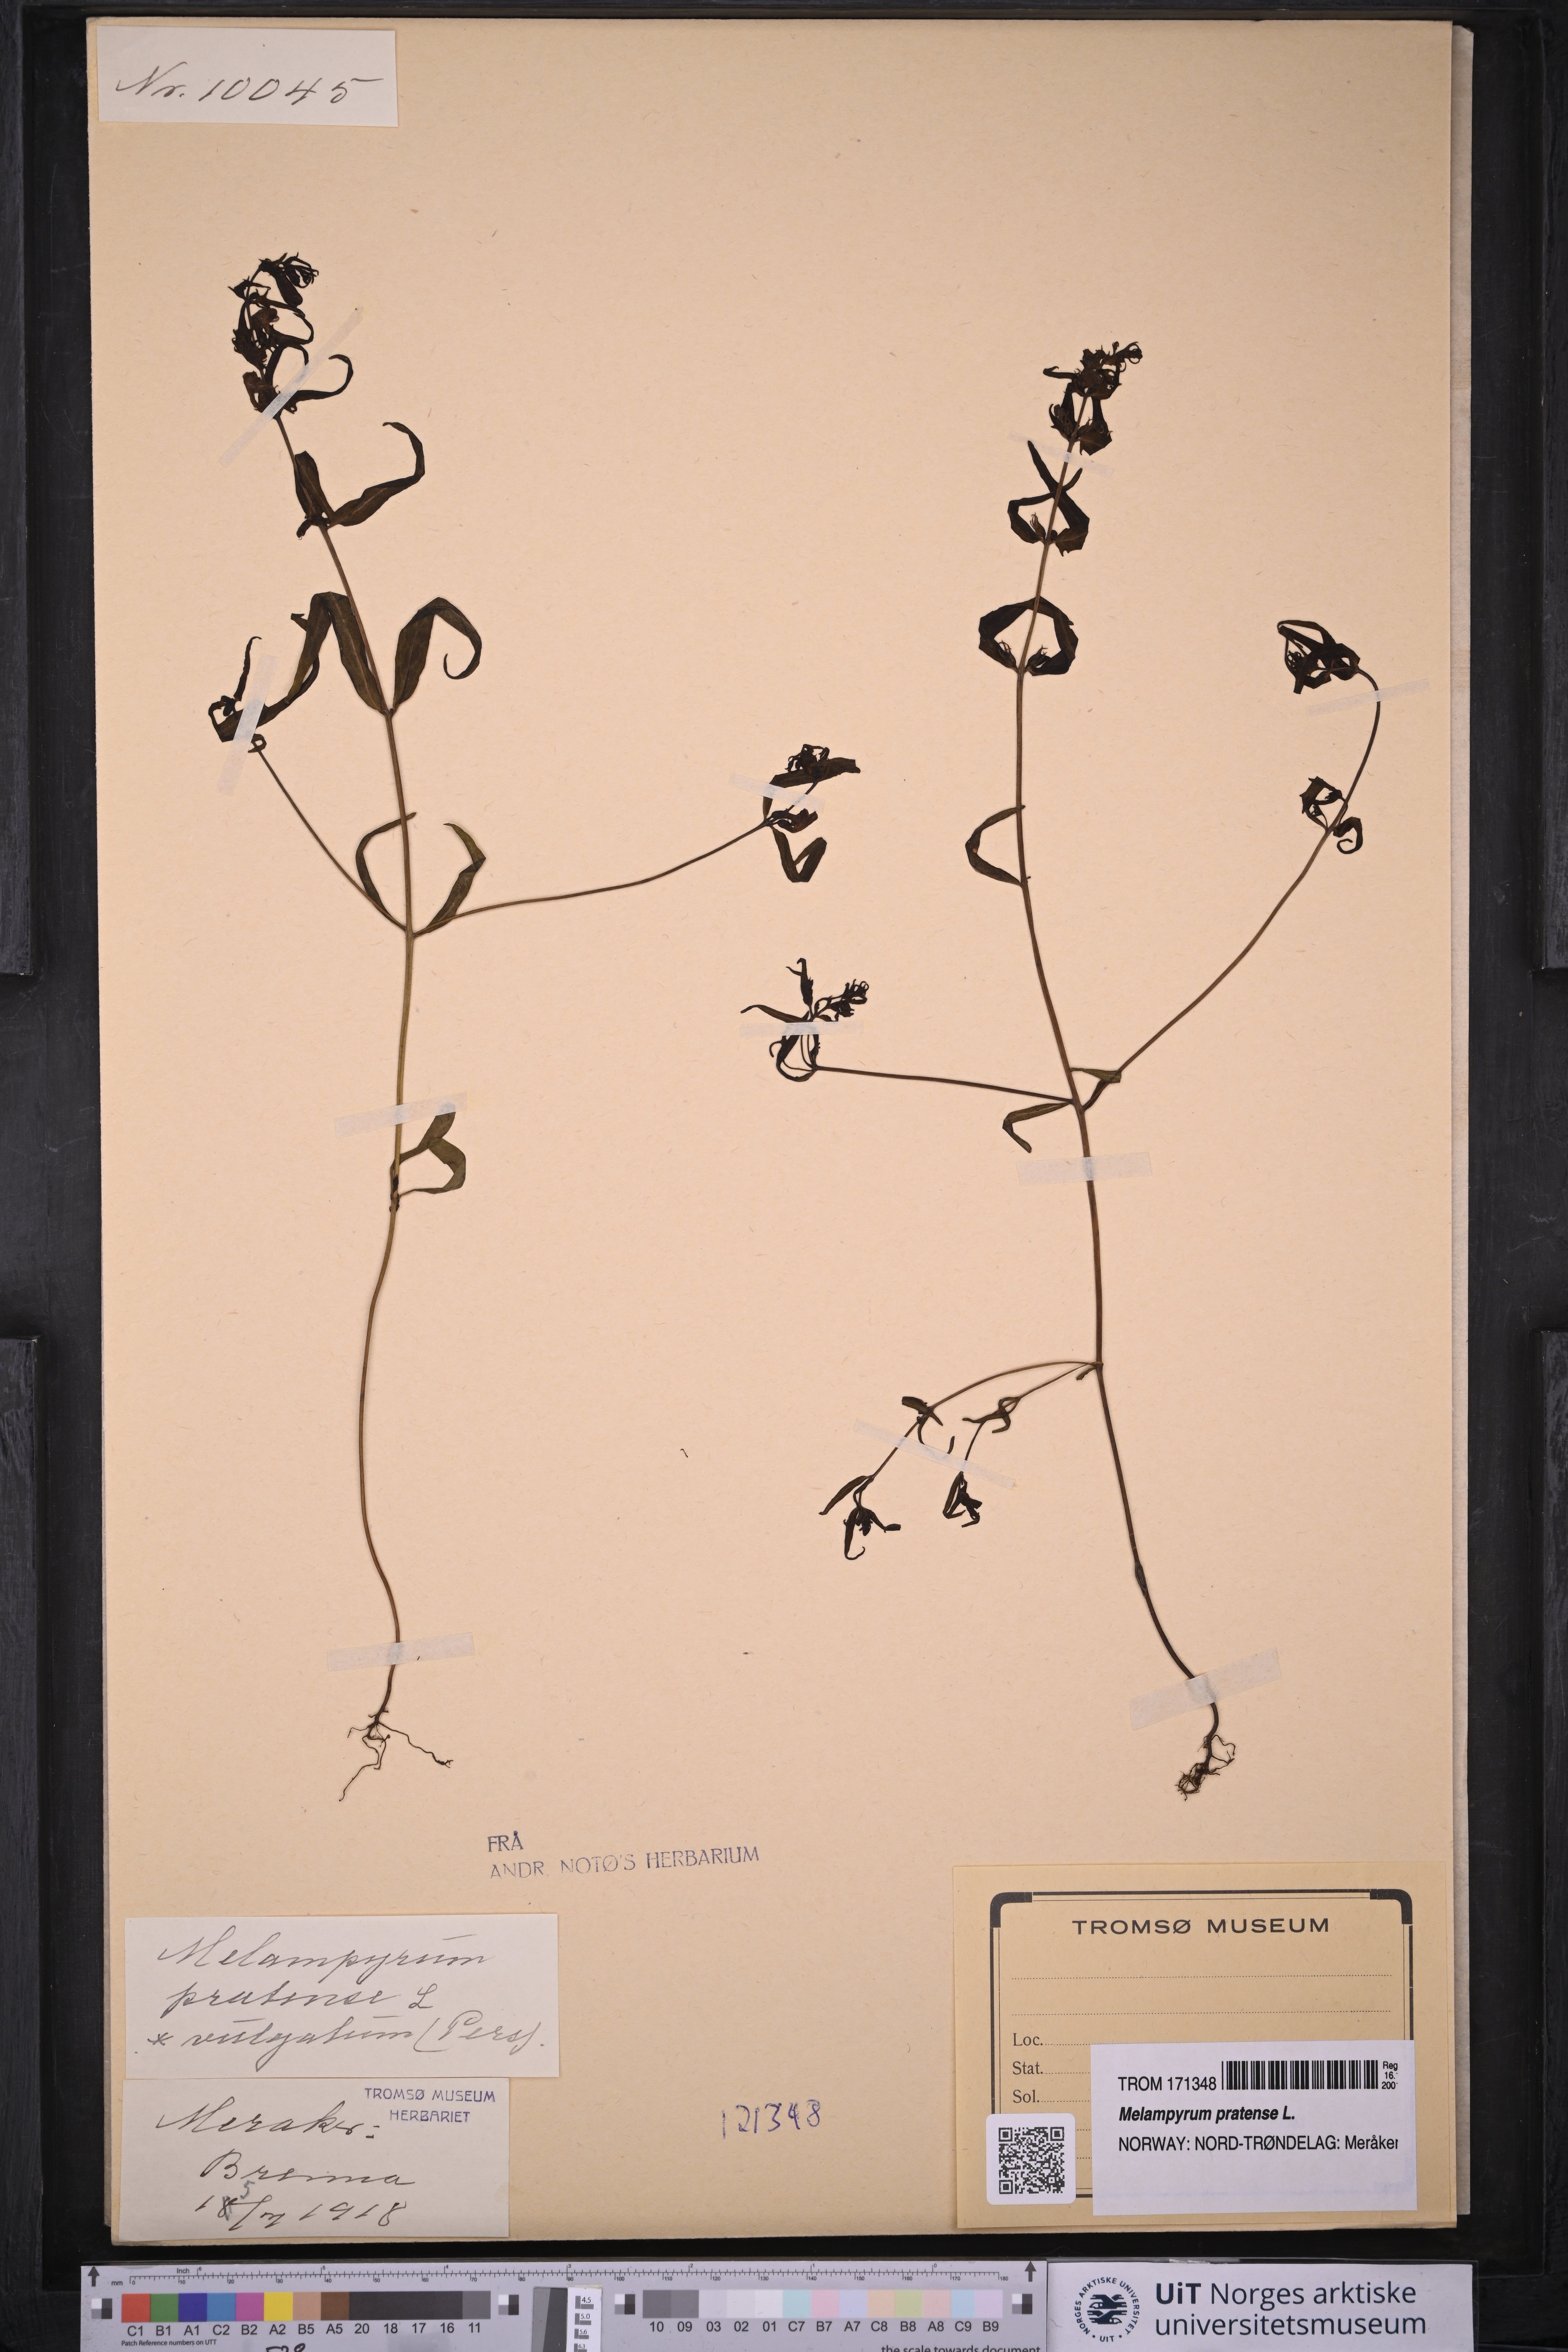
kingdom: Plantae
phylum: Tracheophyta
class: Magnoliopsida
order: Lamiales
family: Orobanchaceae
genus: Melampyrum
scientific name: Melampyrum pratense
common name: Common cow-wheat
